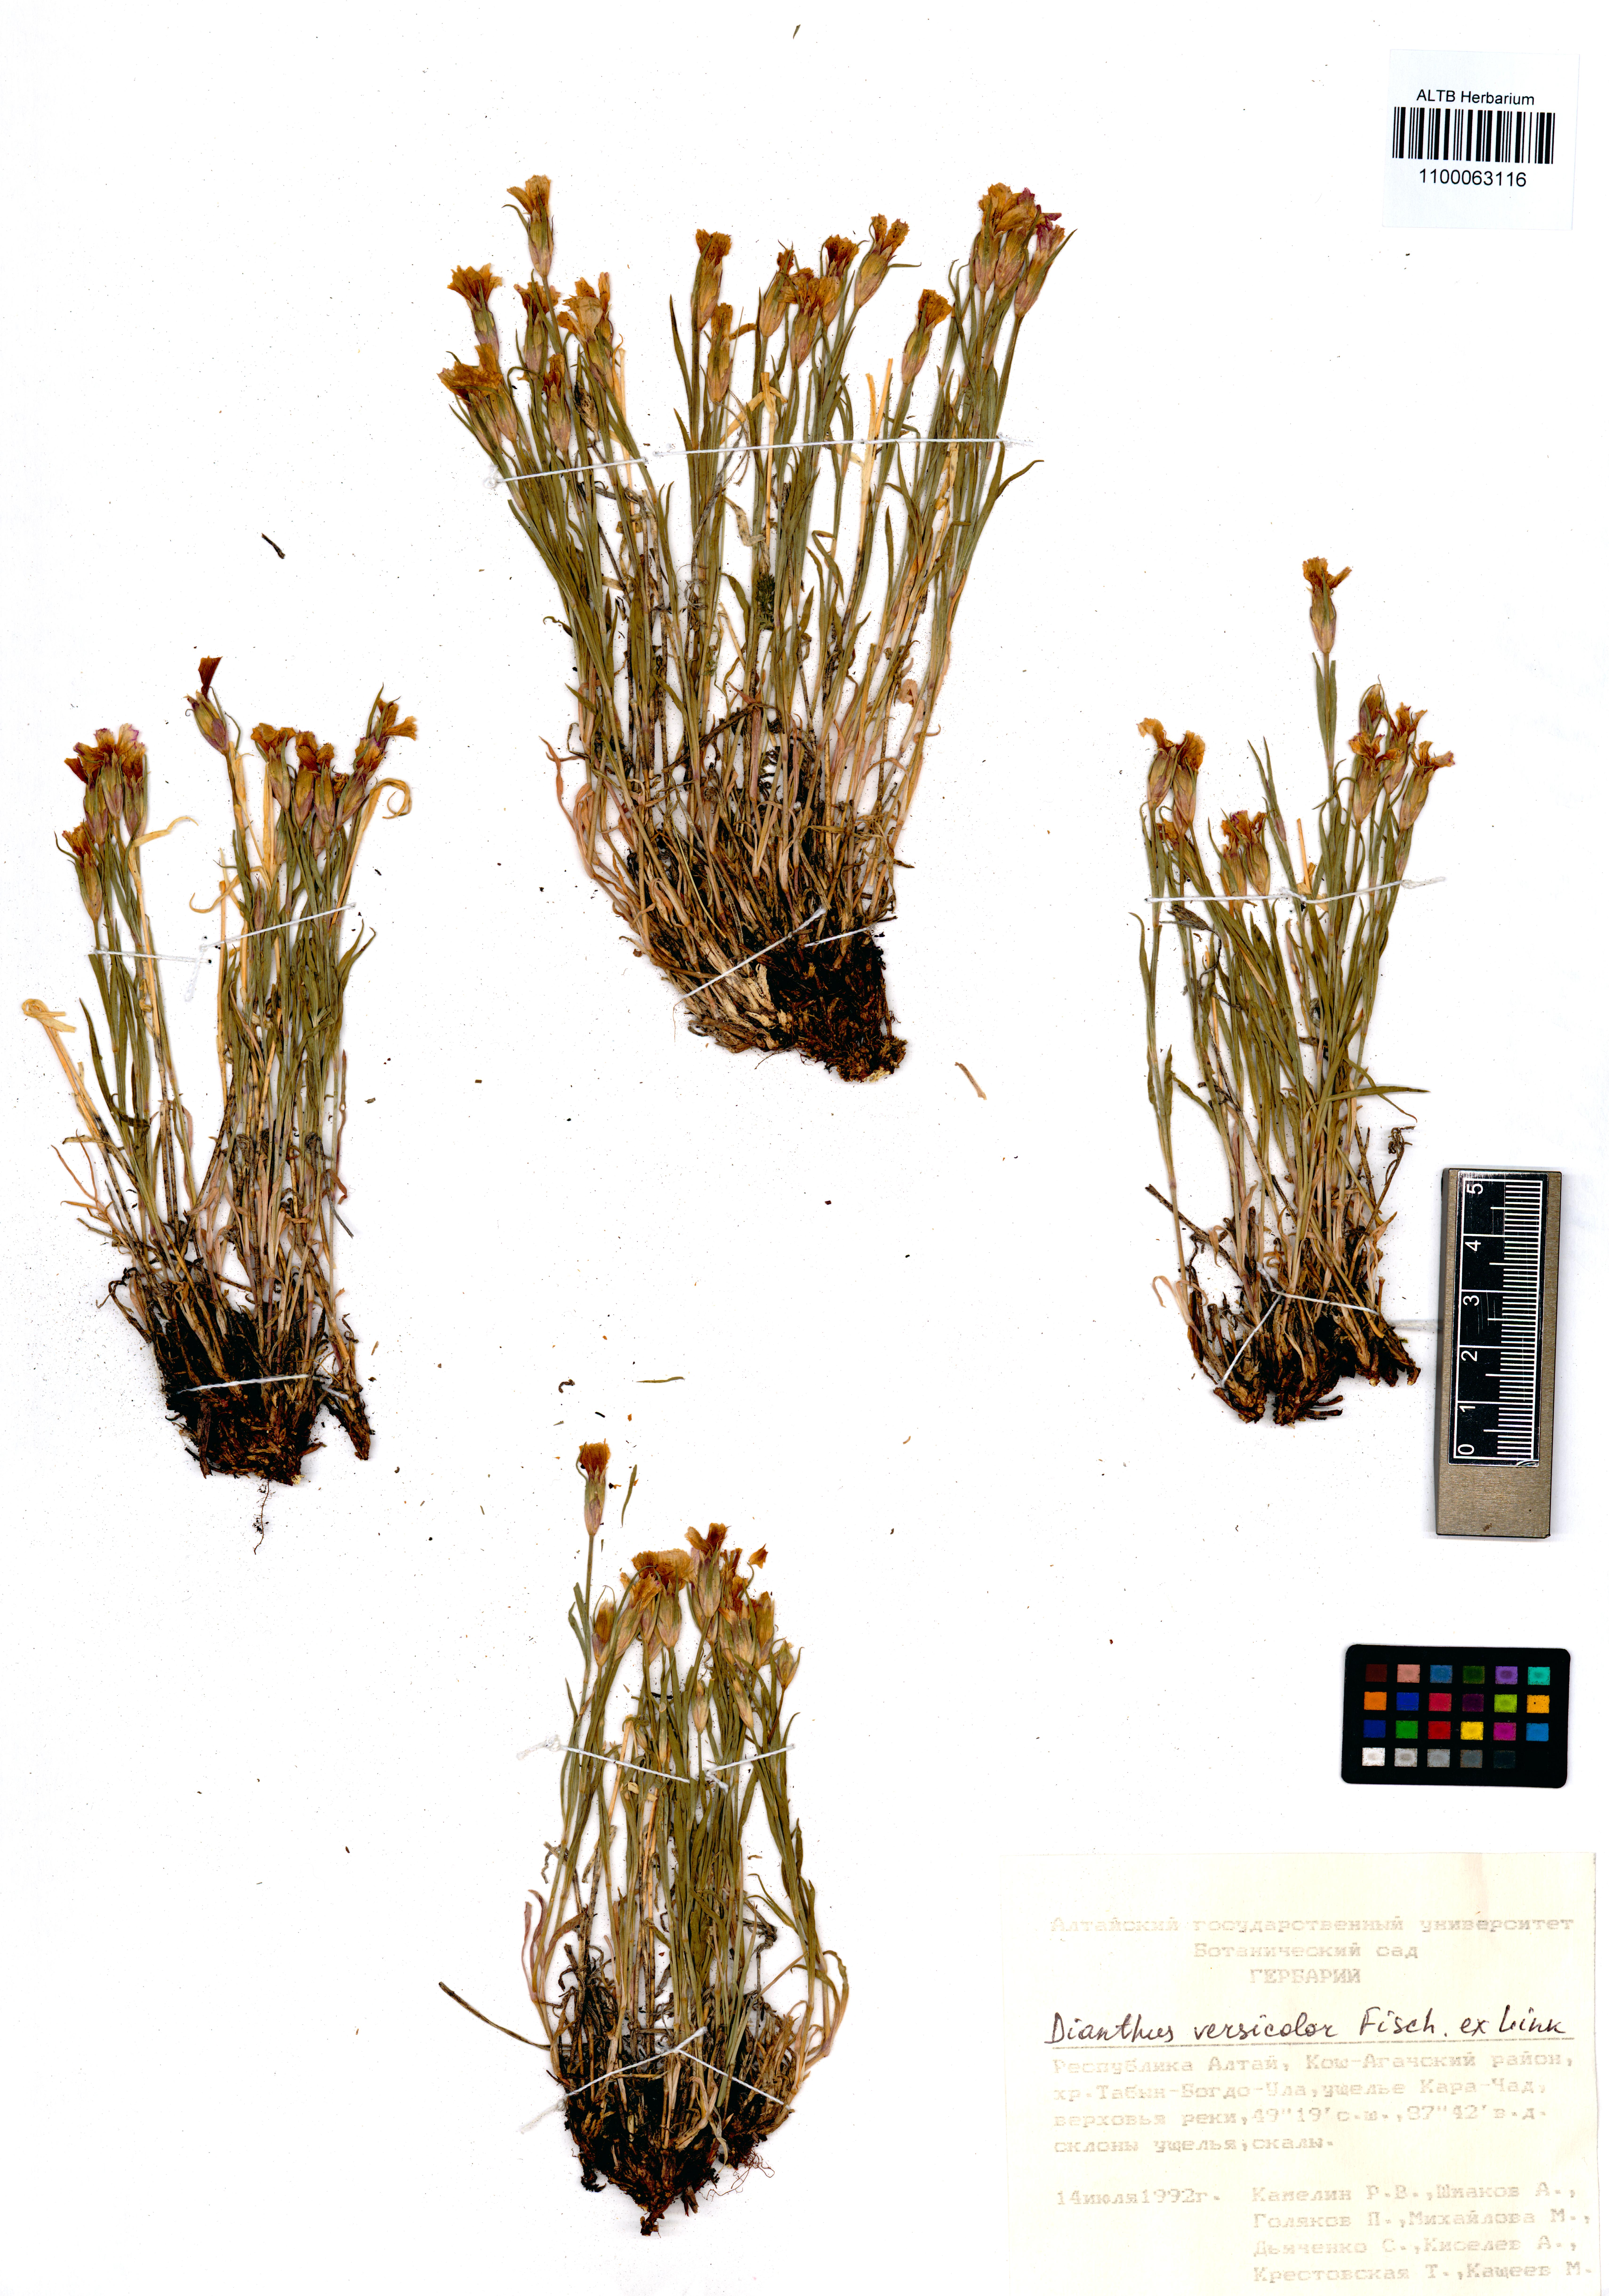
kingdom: Plantae
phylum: Tracheophyta
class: Magnoliopsida
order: Caryophyllales
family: Caryophyllaceae
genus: Dianthus
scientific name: Dianthus chinensis
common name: Rainbow pink
